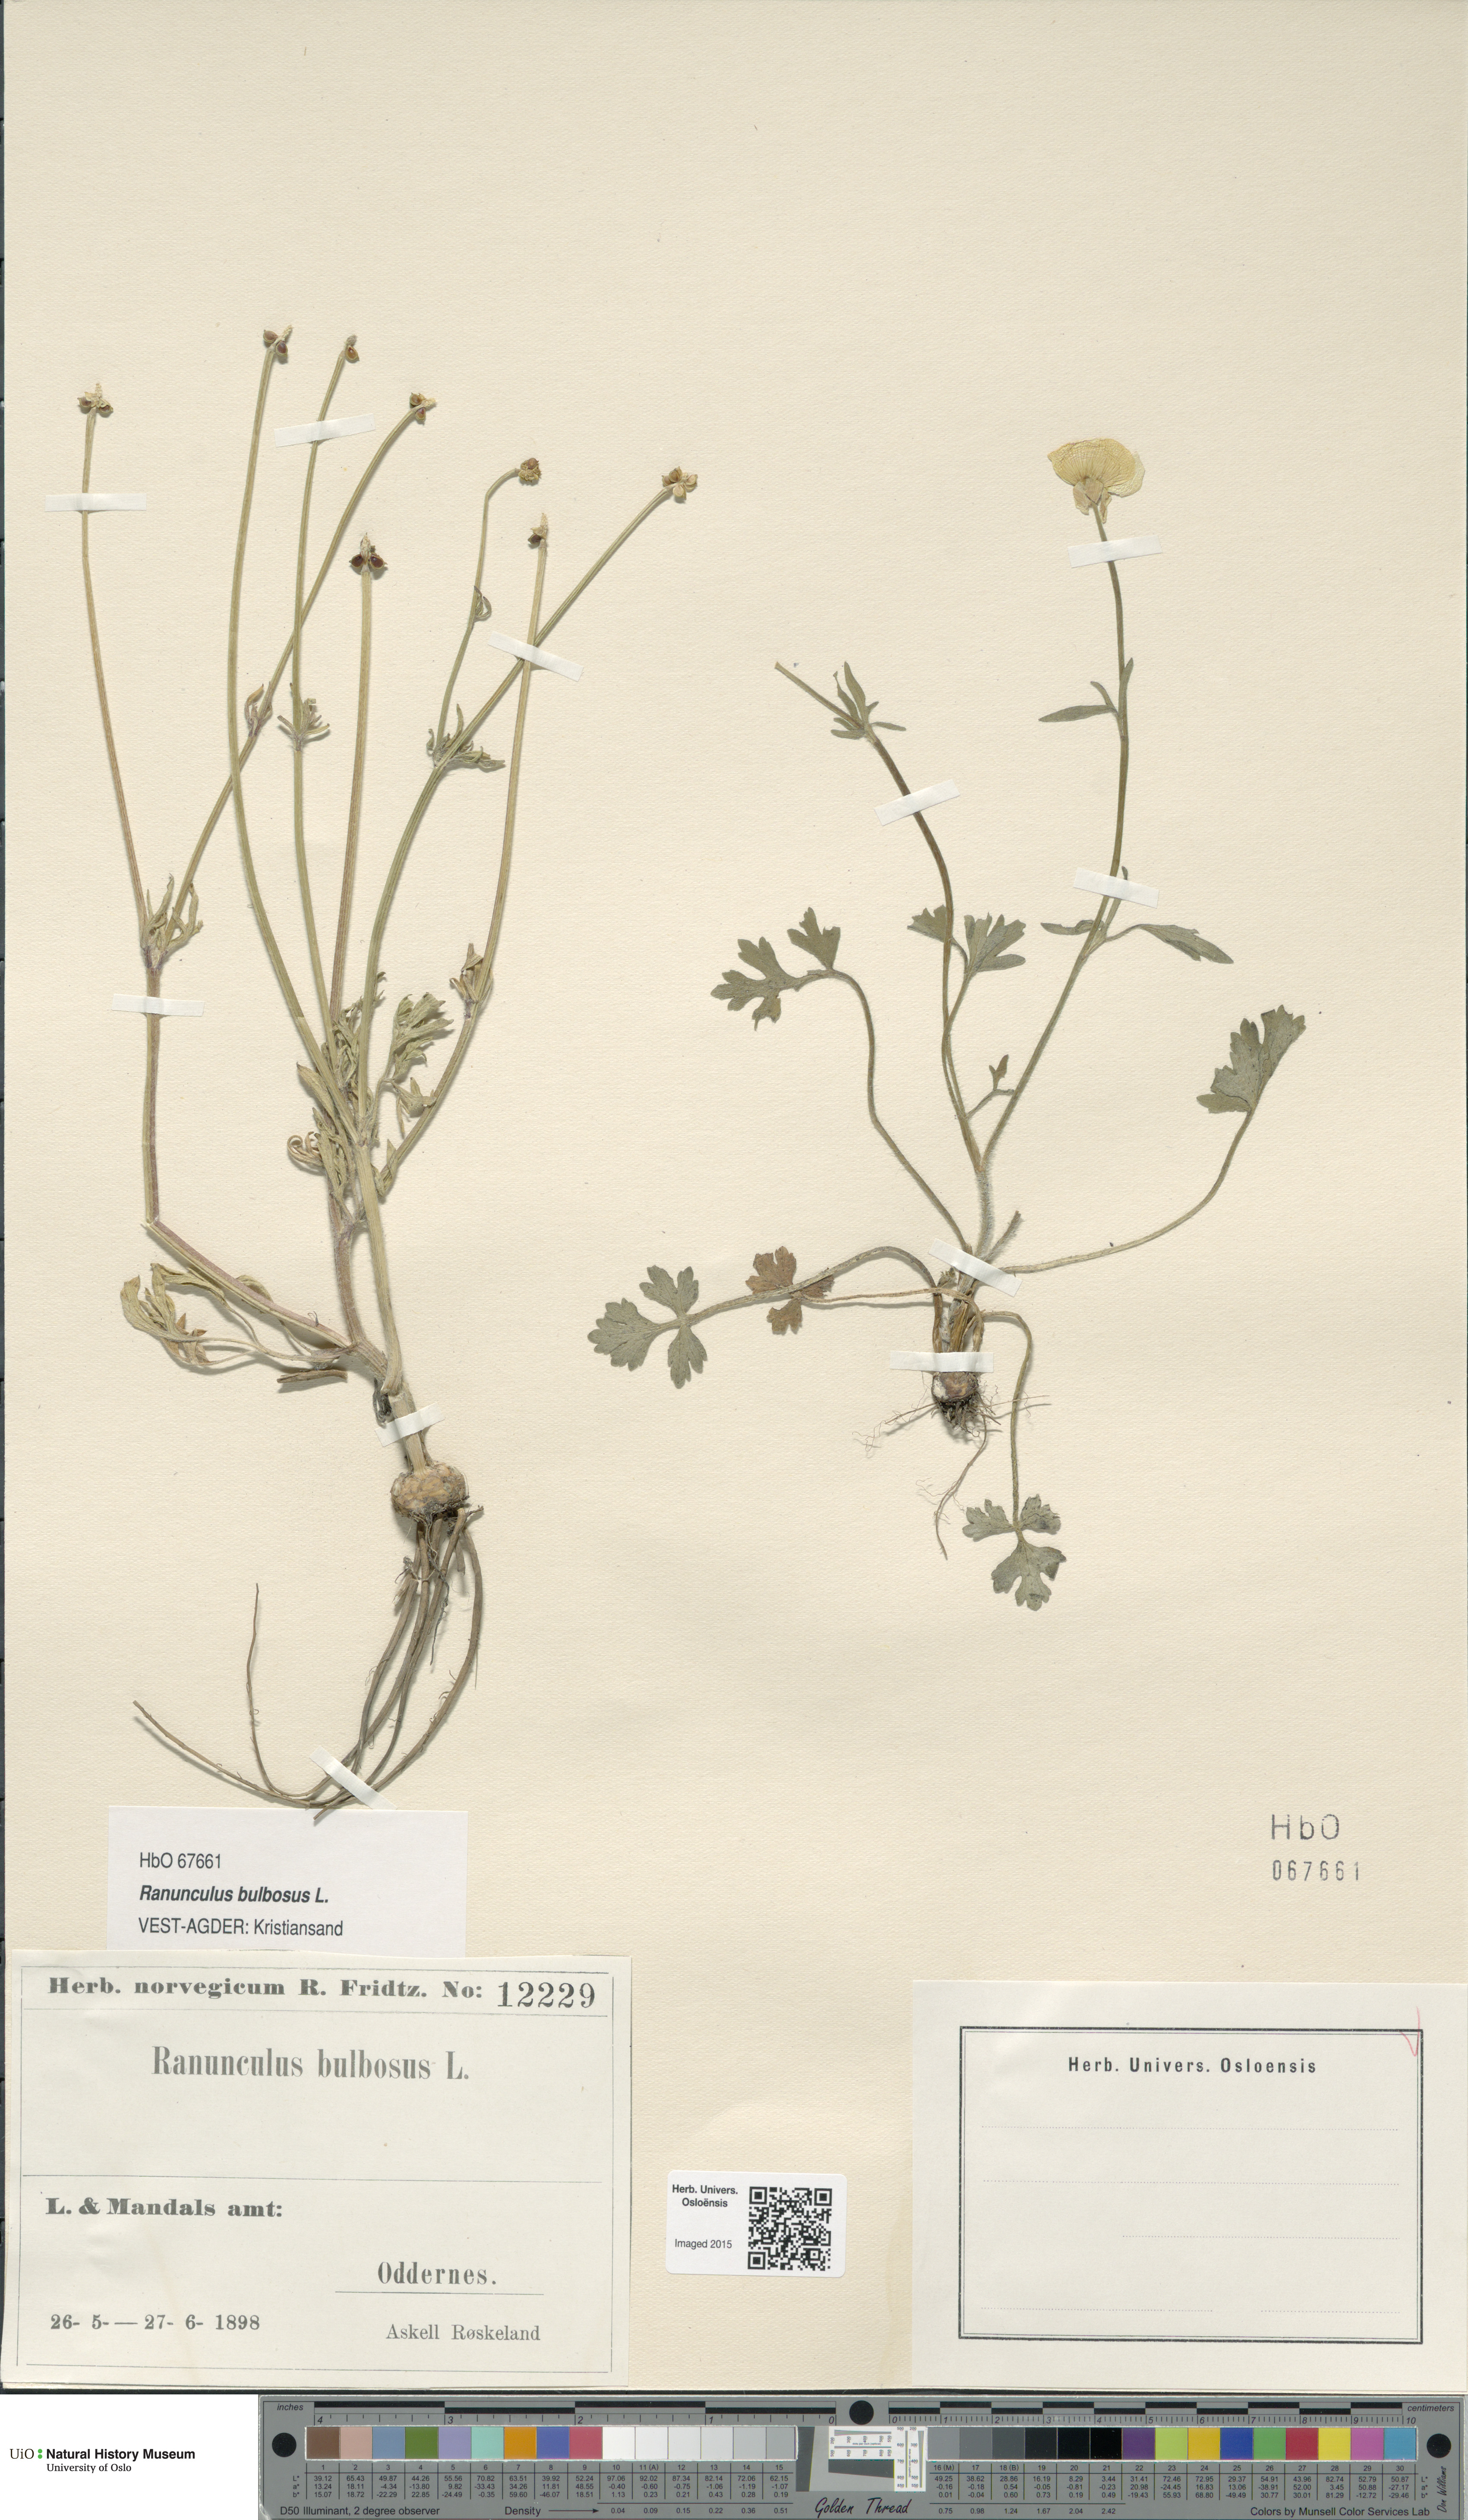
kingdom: Plantae
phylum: Tracheophyta
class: Magnoliopsida
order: Ranunculales
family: Ranunculaceae
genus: Ranunculus
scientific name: Ranunculus bulbosus
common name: Bulbous buttercup
